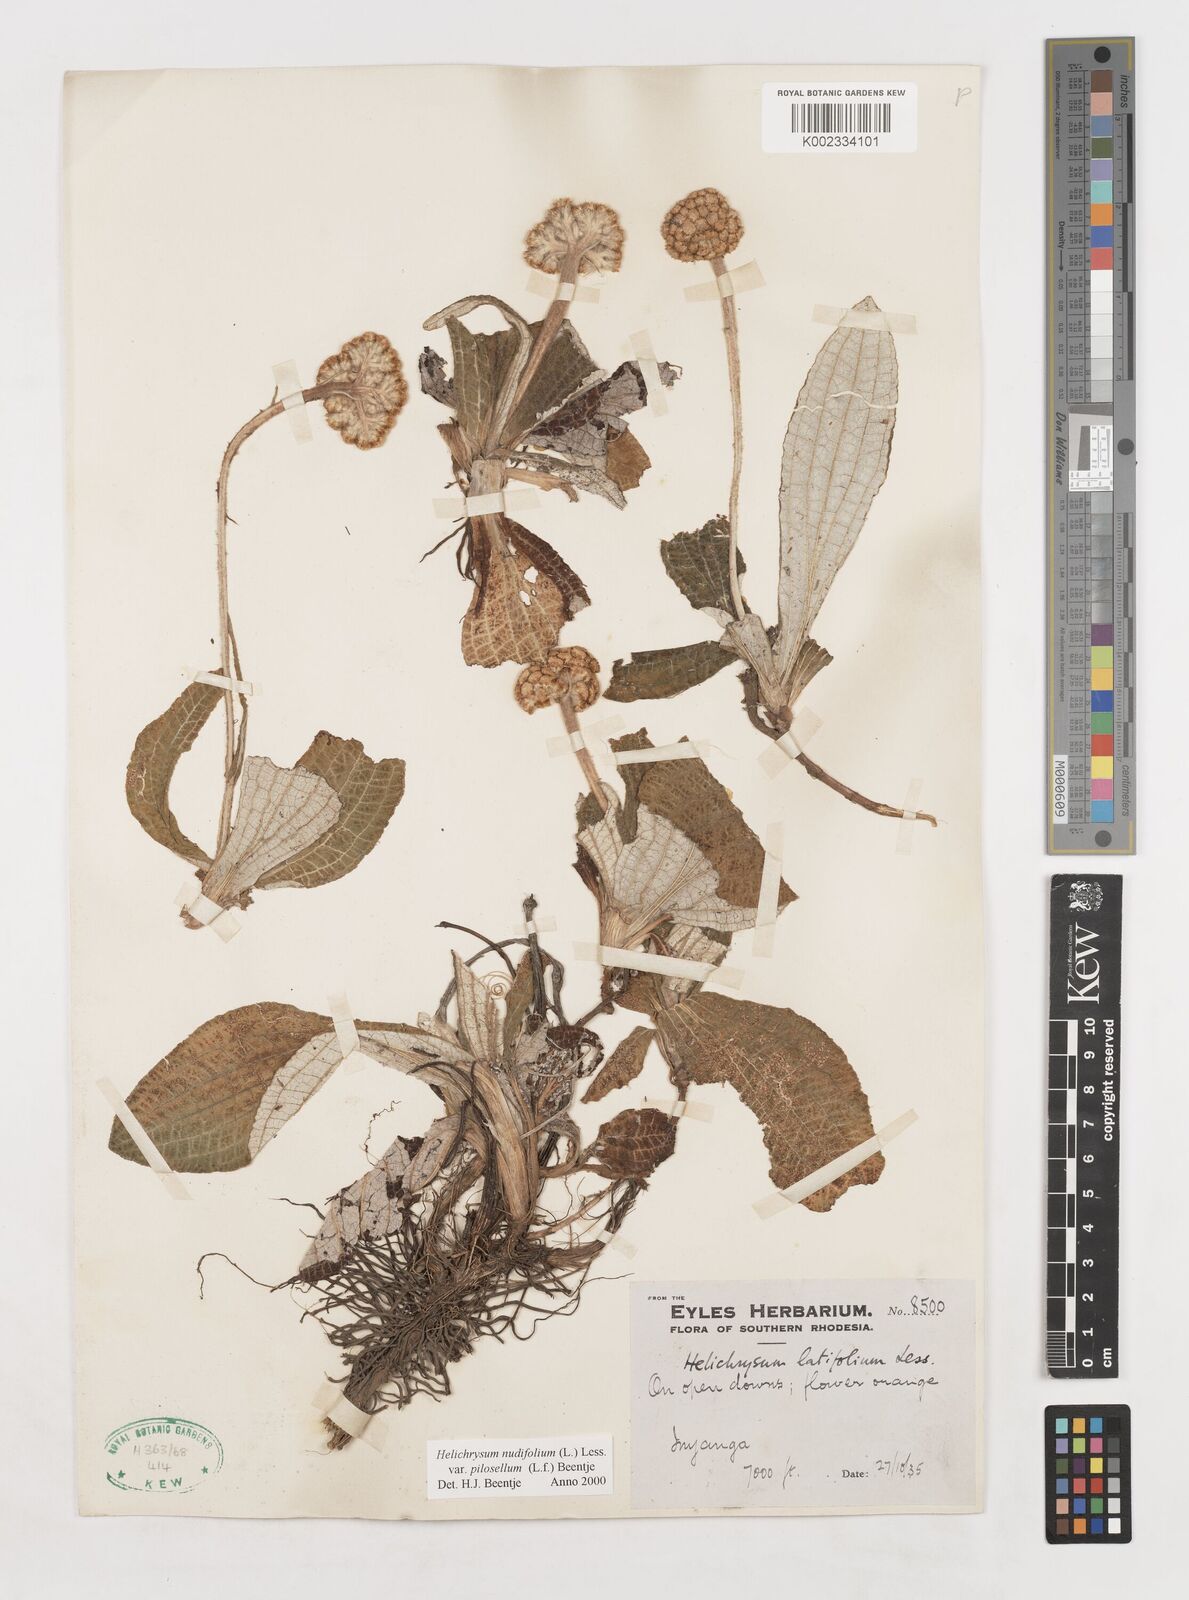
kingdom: Plantae
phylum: Tracheophyta
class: Magnoliopsida
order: Asterales
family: Asteraceae
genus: Helichrysum
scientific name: Helichrysum nudifolium
